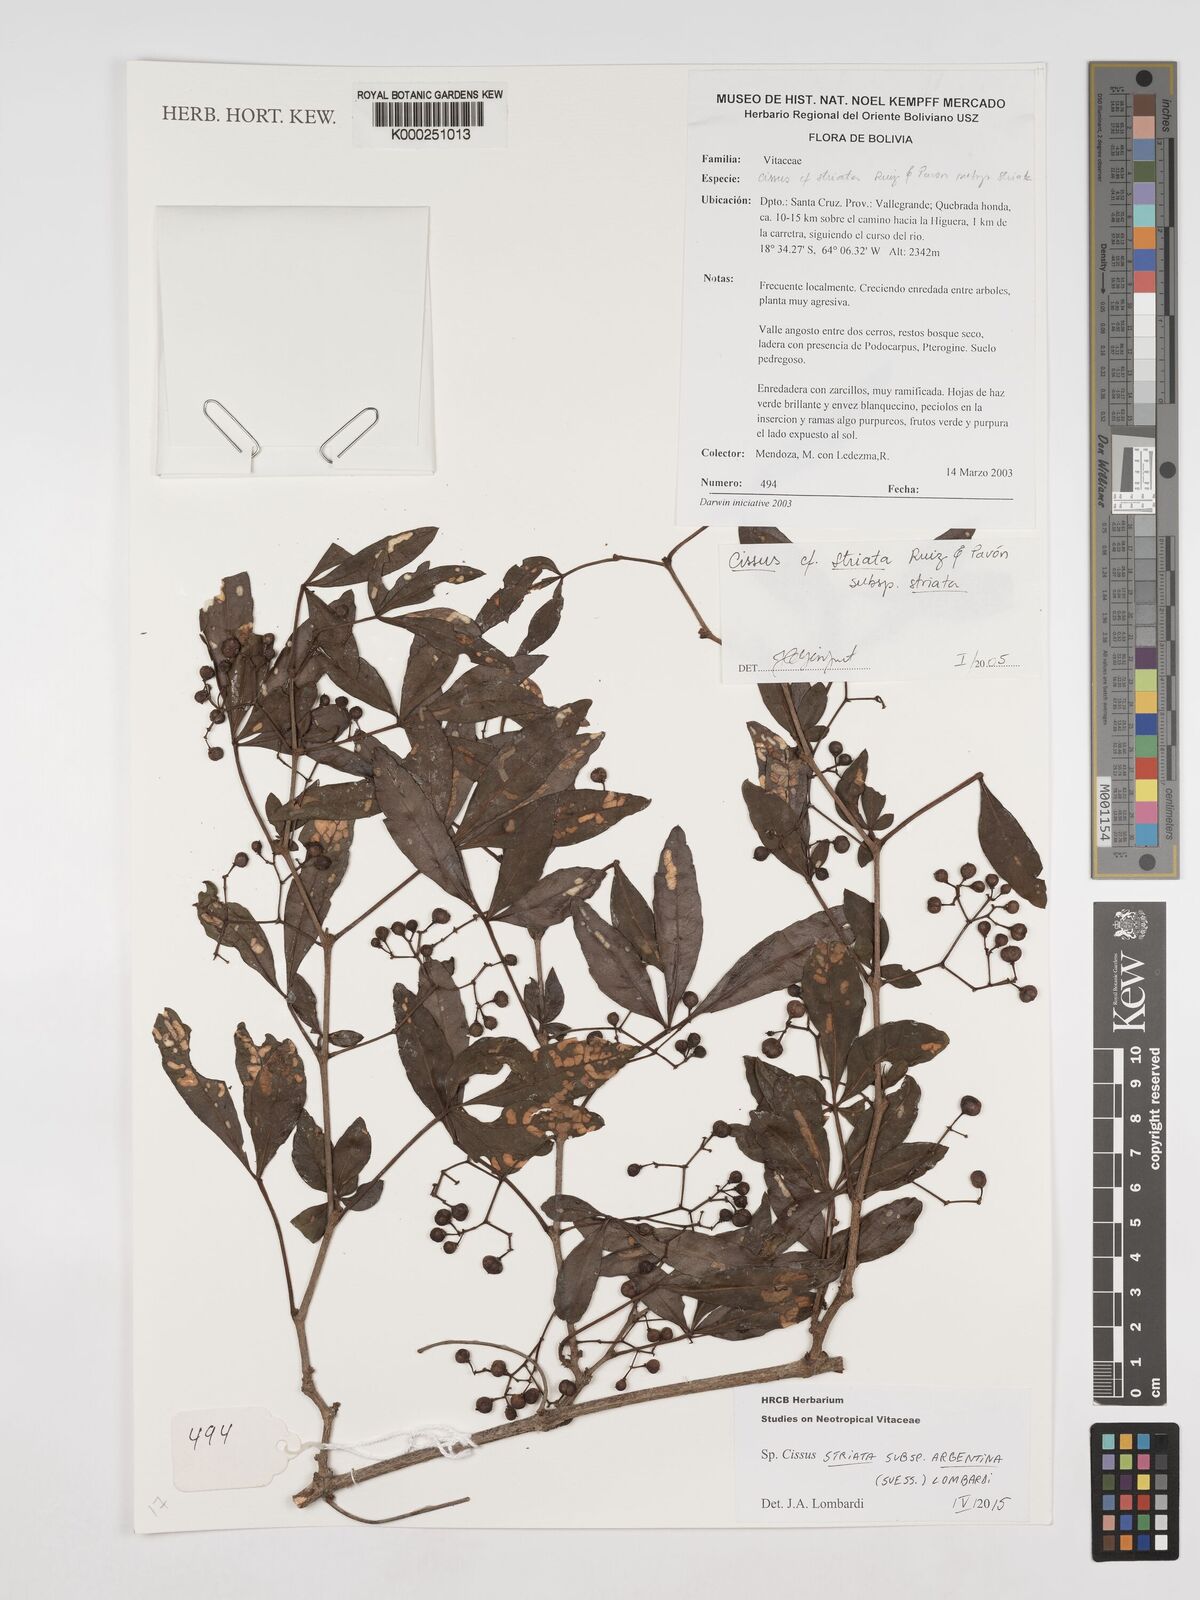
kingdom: Plantae
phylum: Tracheophyta
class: Magnoliopsida
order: Vitales
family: Vitaceae
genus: Clematicissus
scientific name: Clematicissus striata
